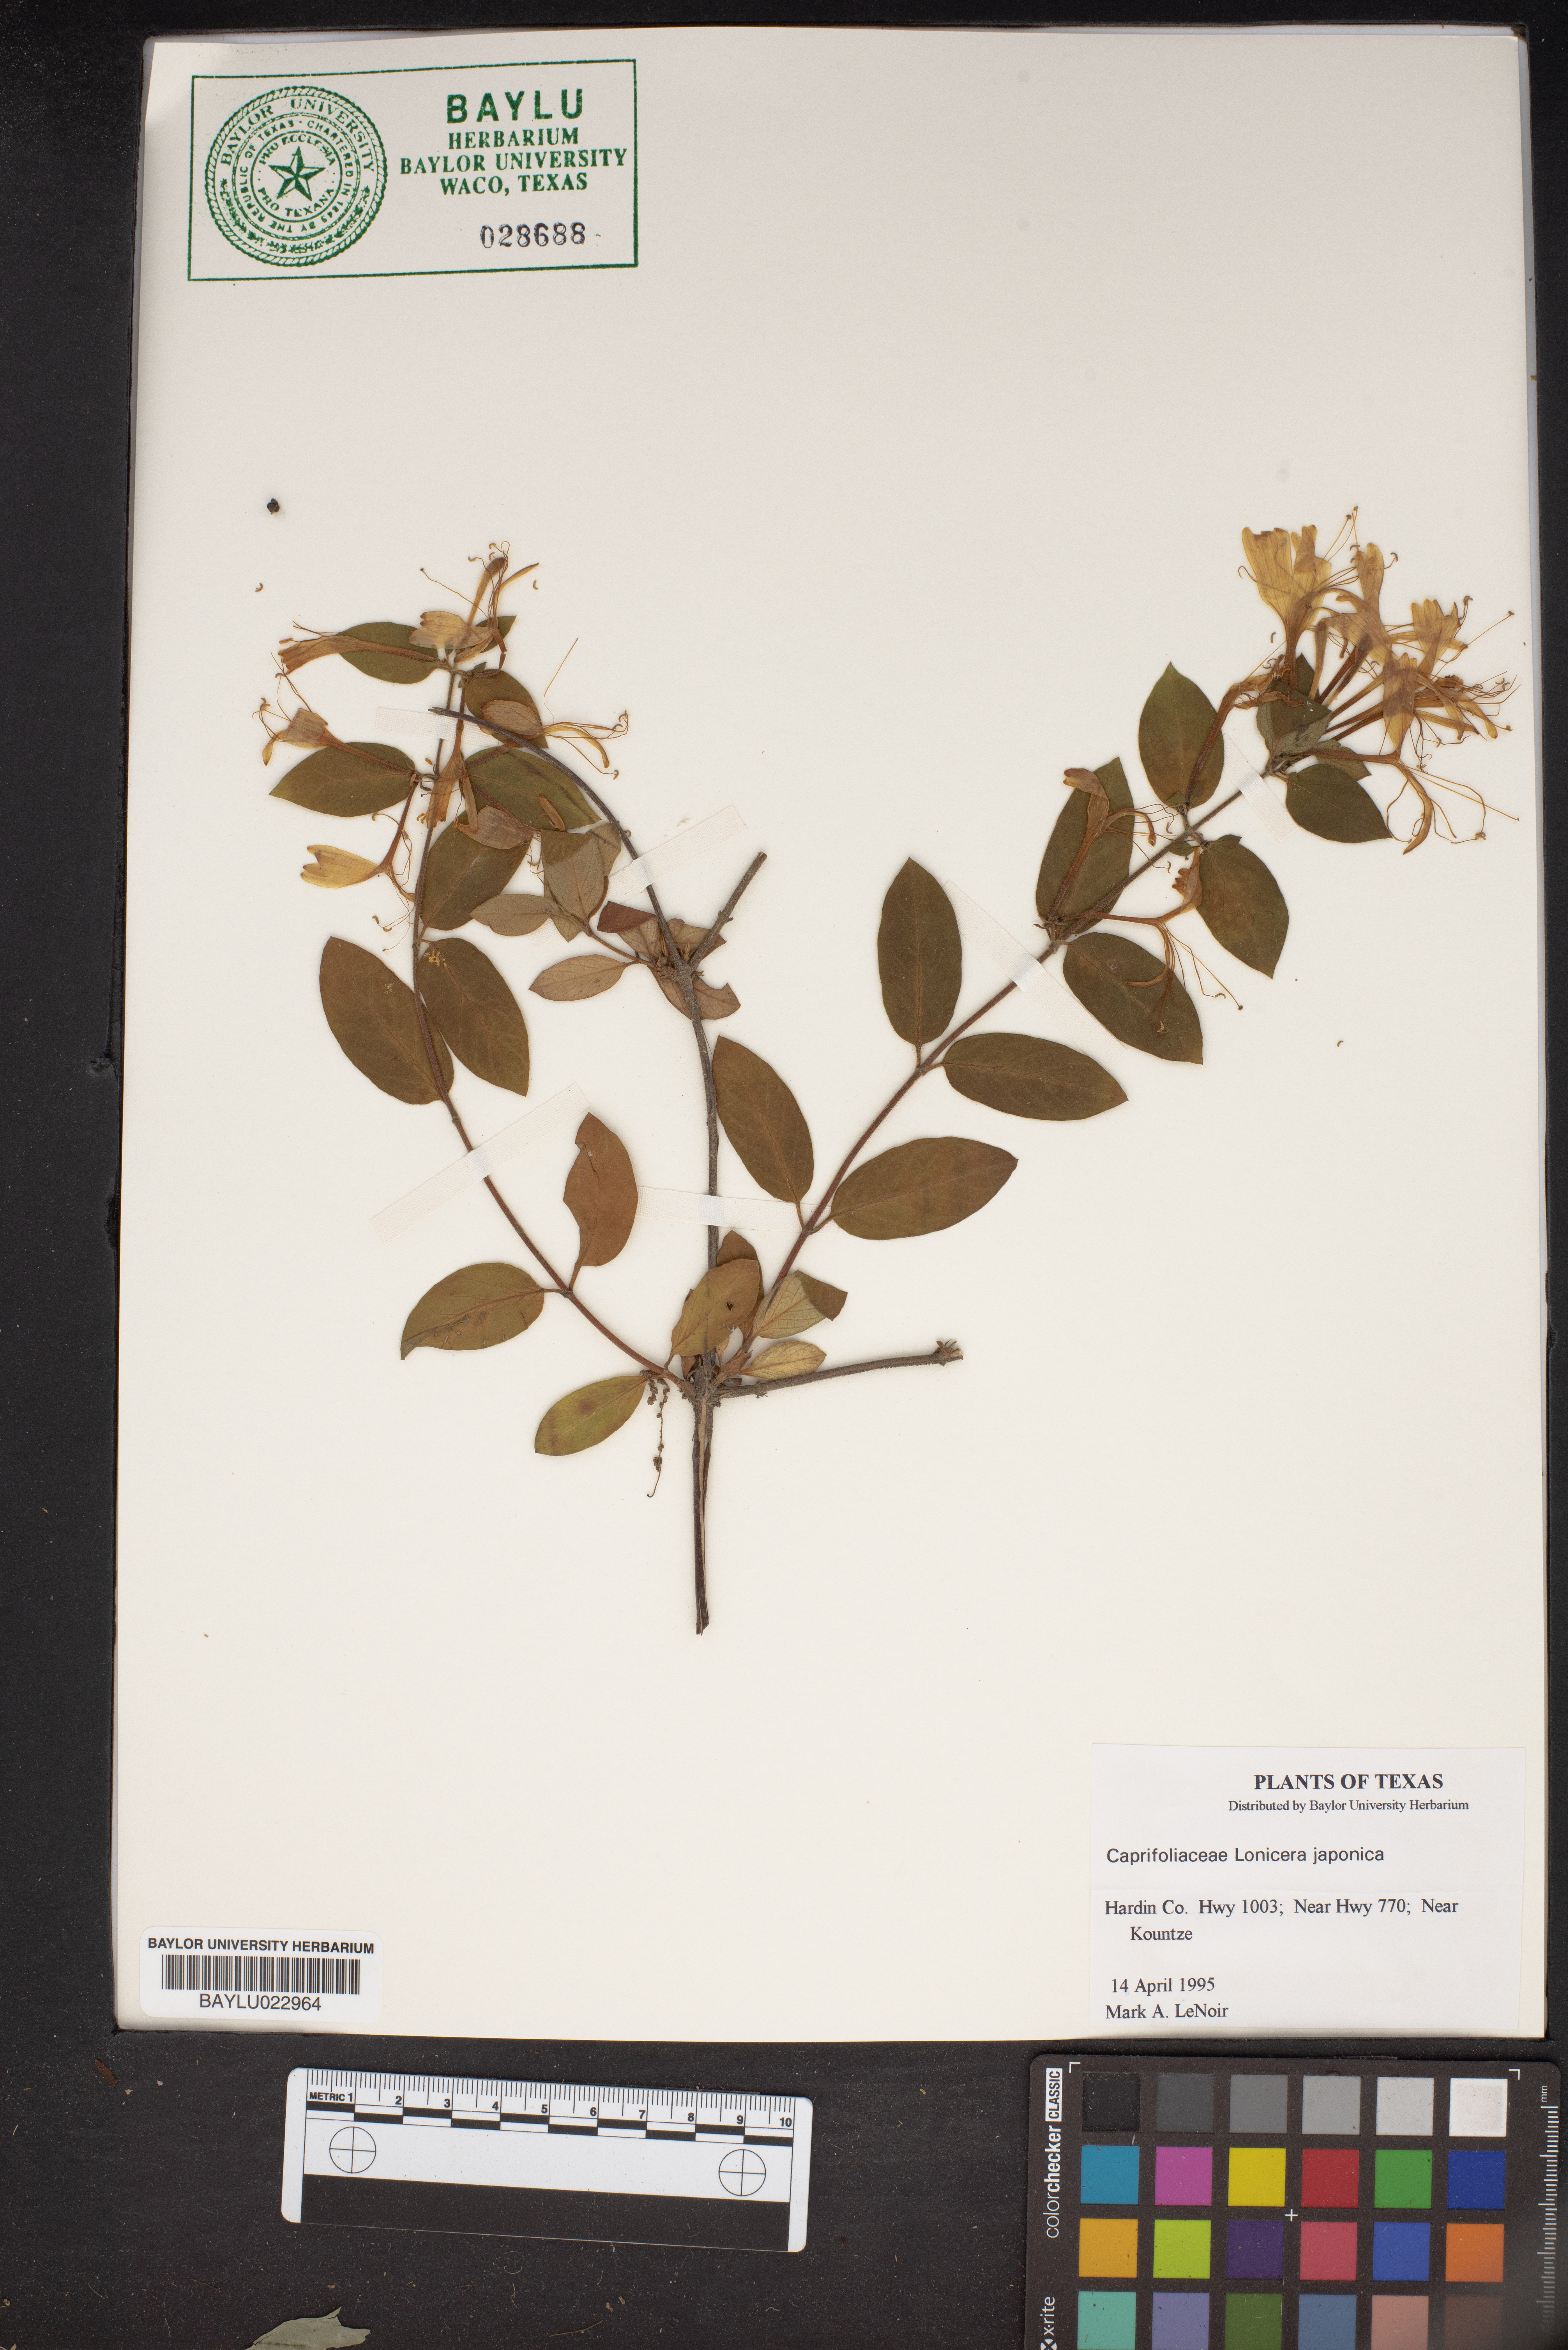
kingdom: Plantae
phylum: Tracheophyta
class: Magnoliopsida
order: Dipsacales
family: Caprifoliaceae
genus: Lonicera
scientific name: Lonicera japonica
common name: Japanese honeysuckle
